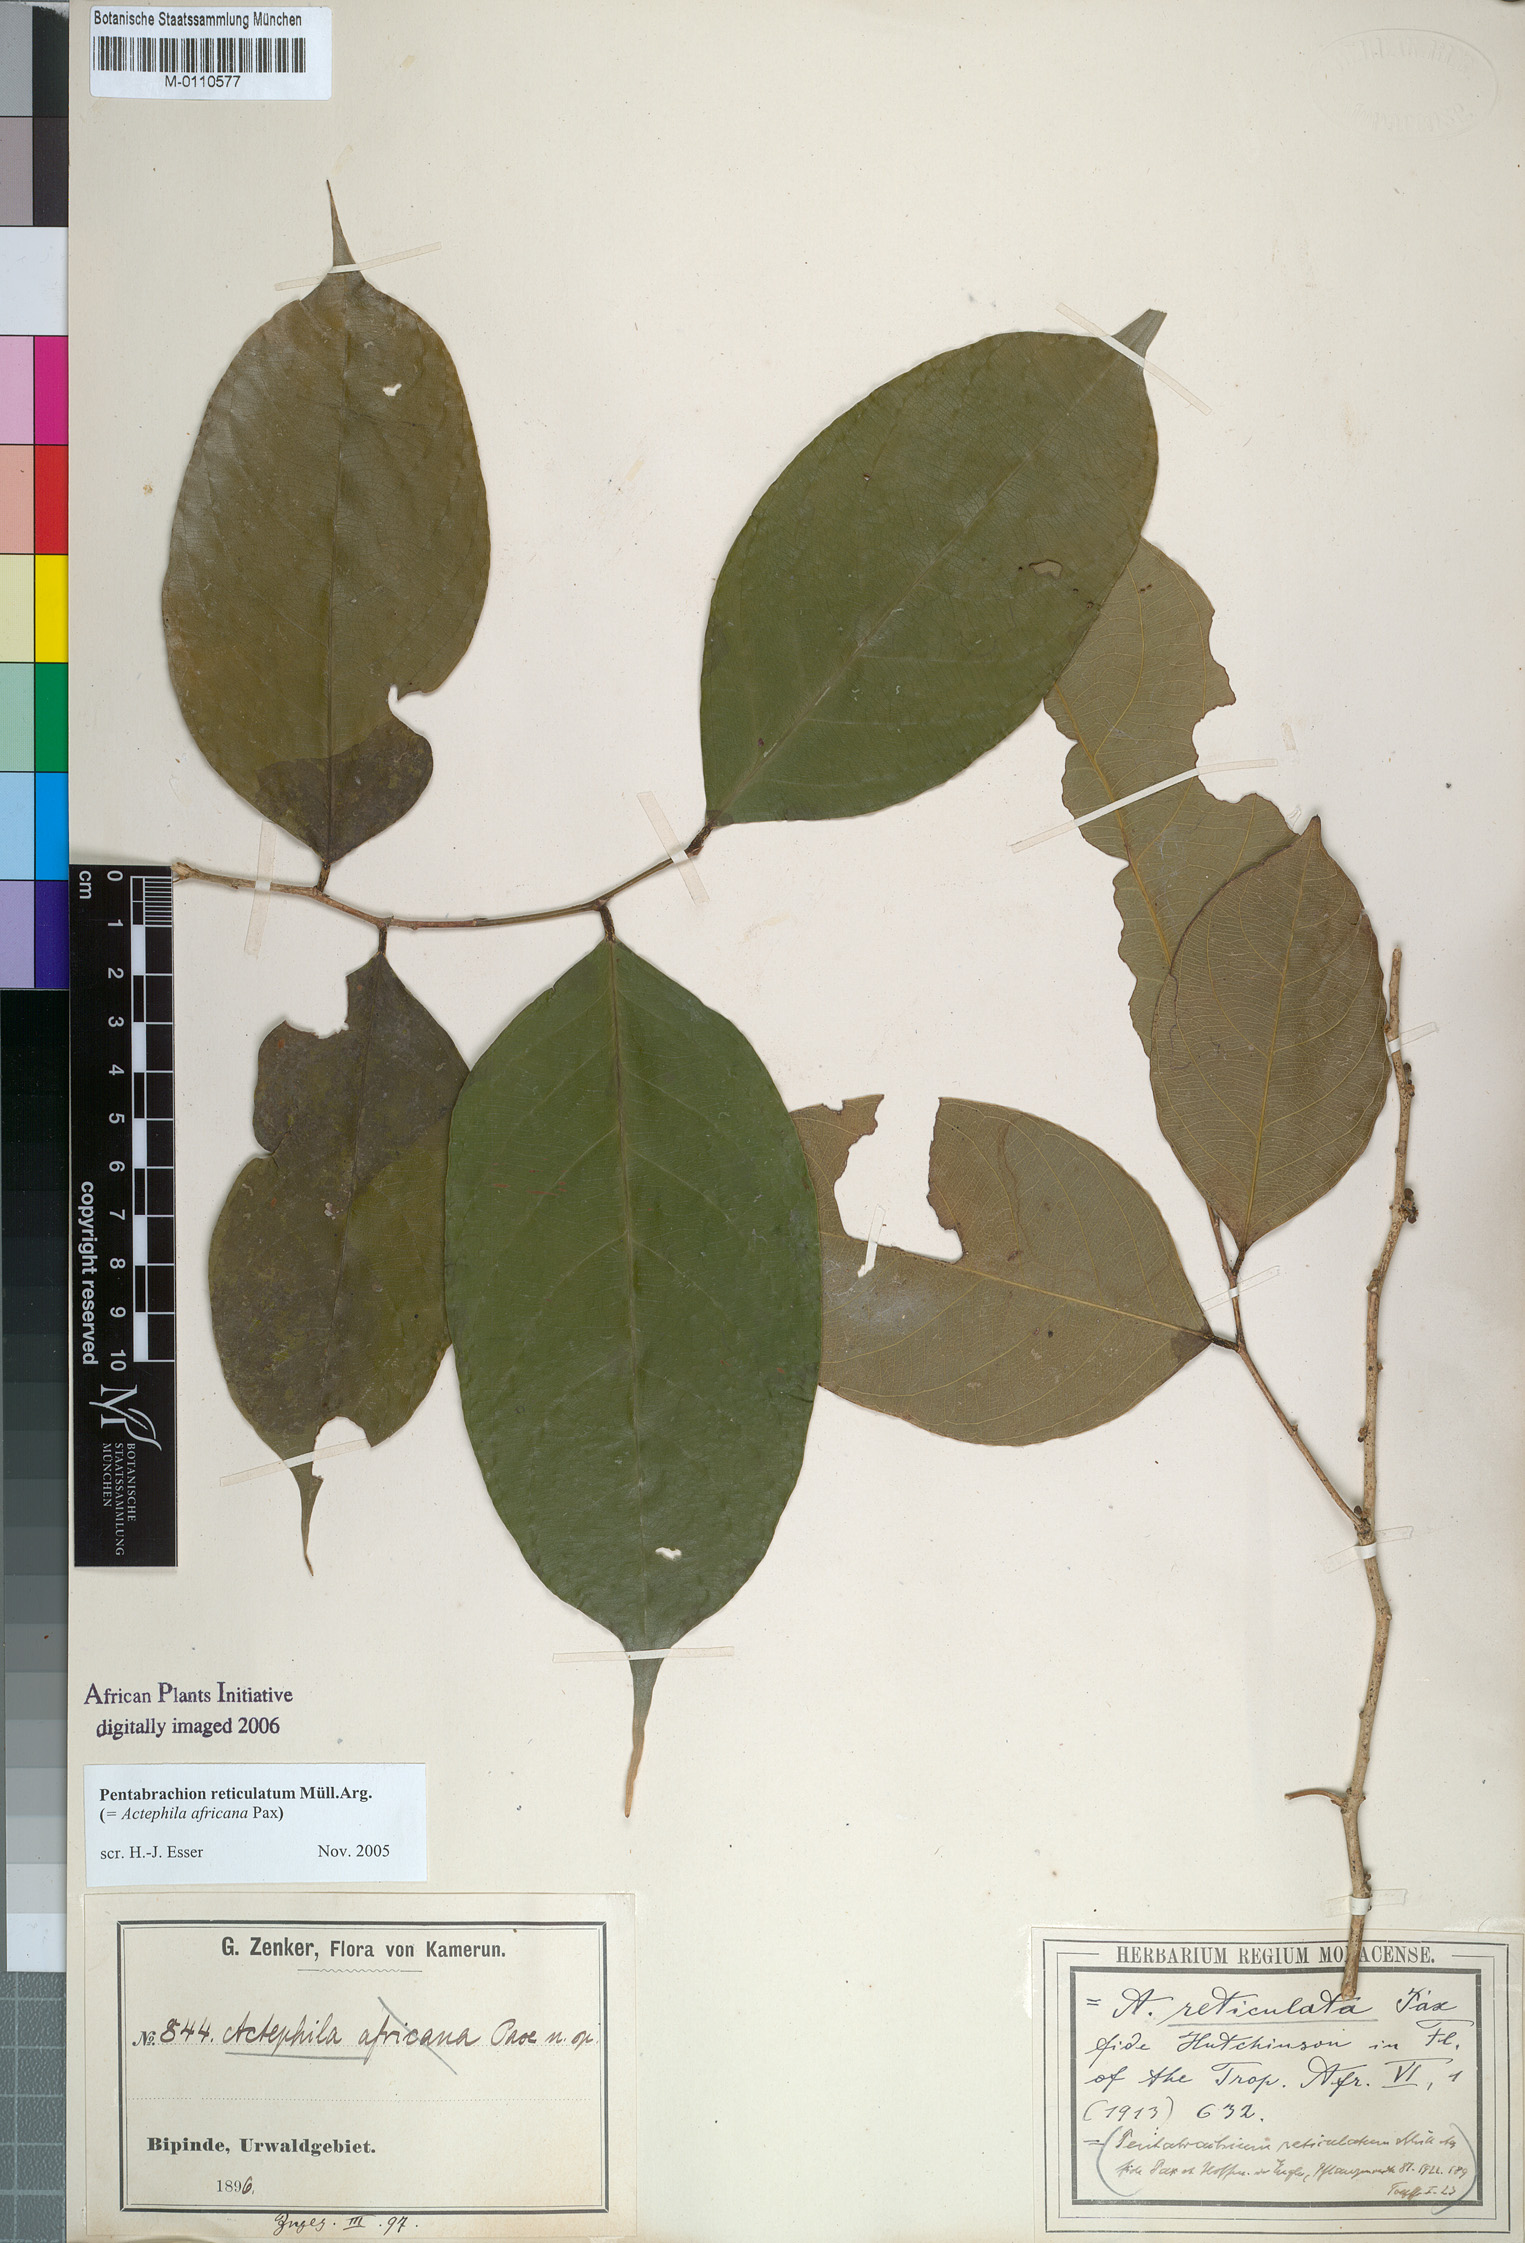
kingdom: Plantae
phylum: Tracheophyta
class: Magnoliopsida
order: Malpighiales
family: Phyllanthaceae
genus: Pentabrachion
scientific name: Pentabrachion reticulatum
